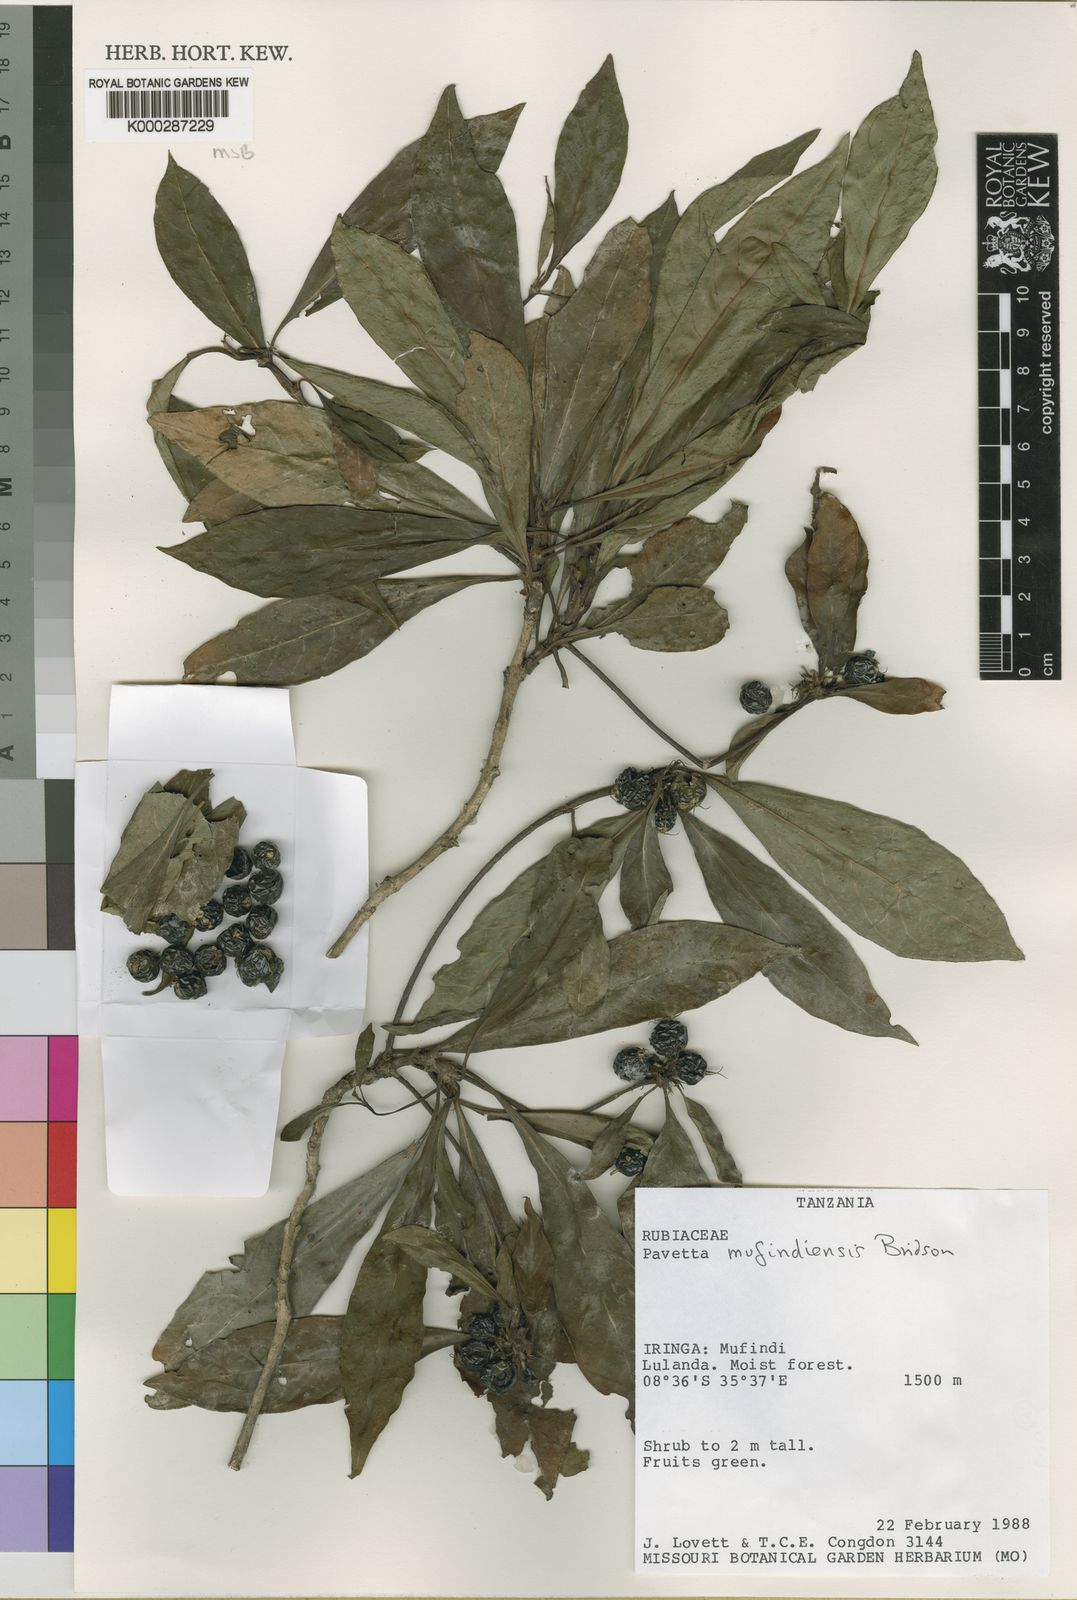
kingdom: Plantae
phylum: Tracheophyta
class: Magnoliopsida
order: Gentianales
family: Rubiaceae
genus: Pavetta
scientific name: Pavetta mufindiensis
